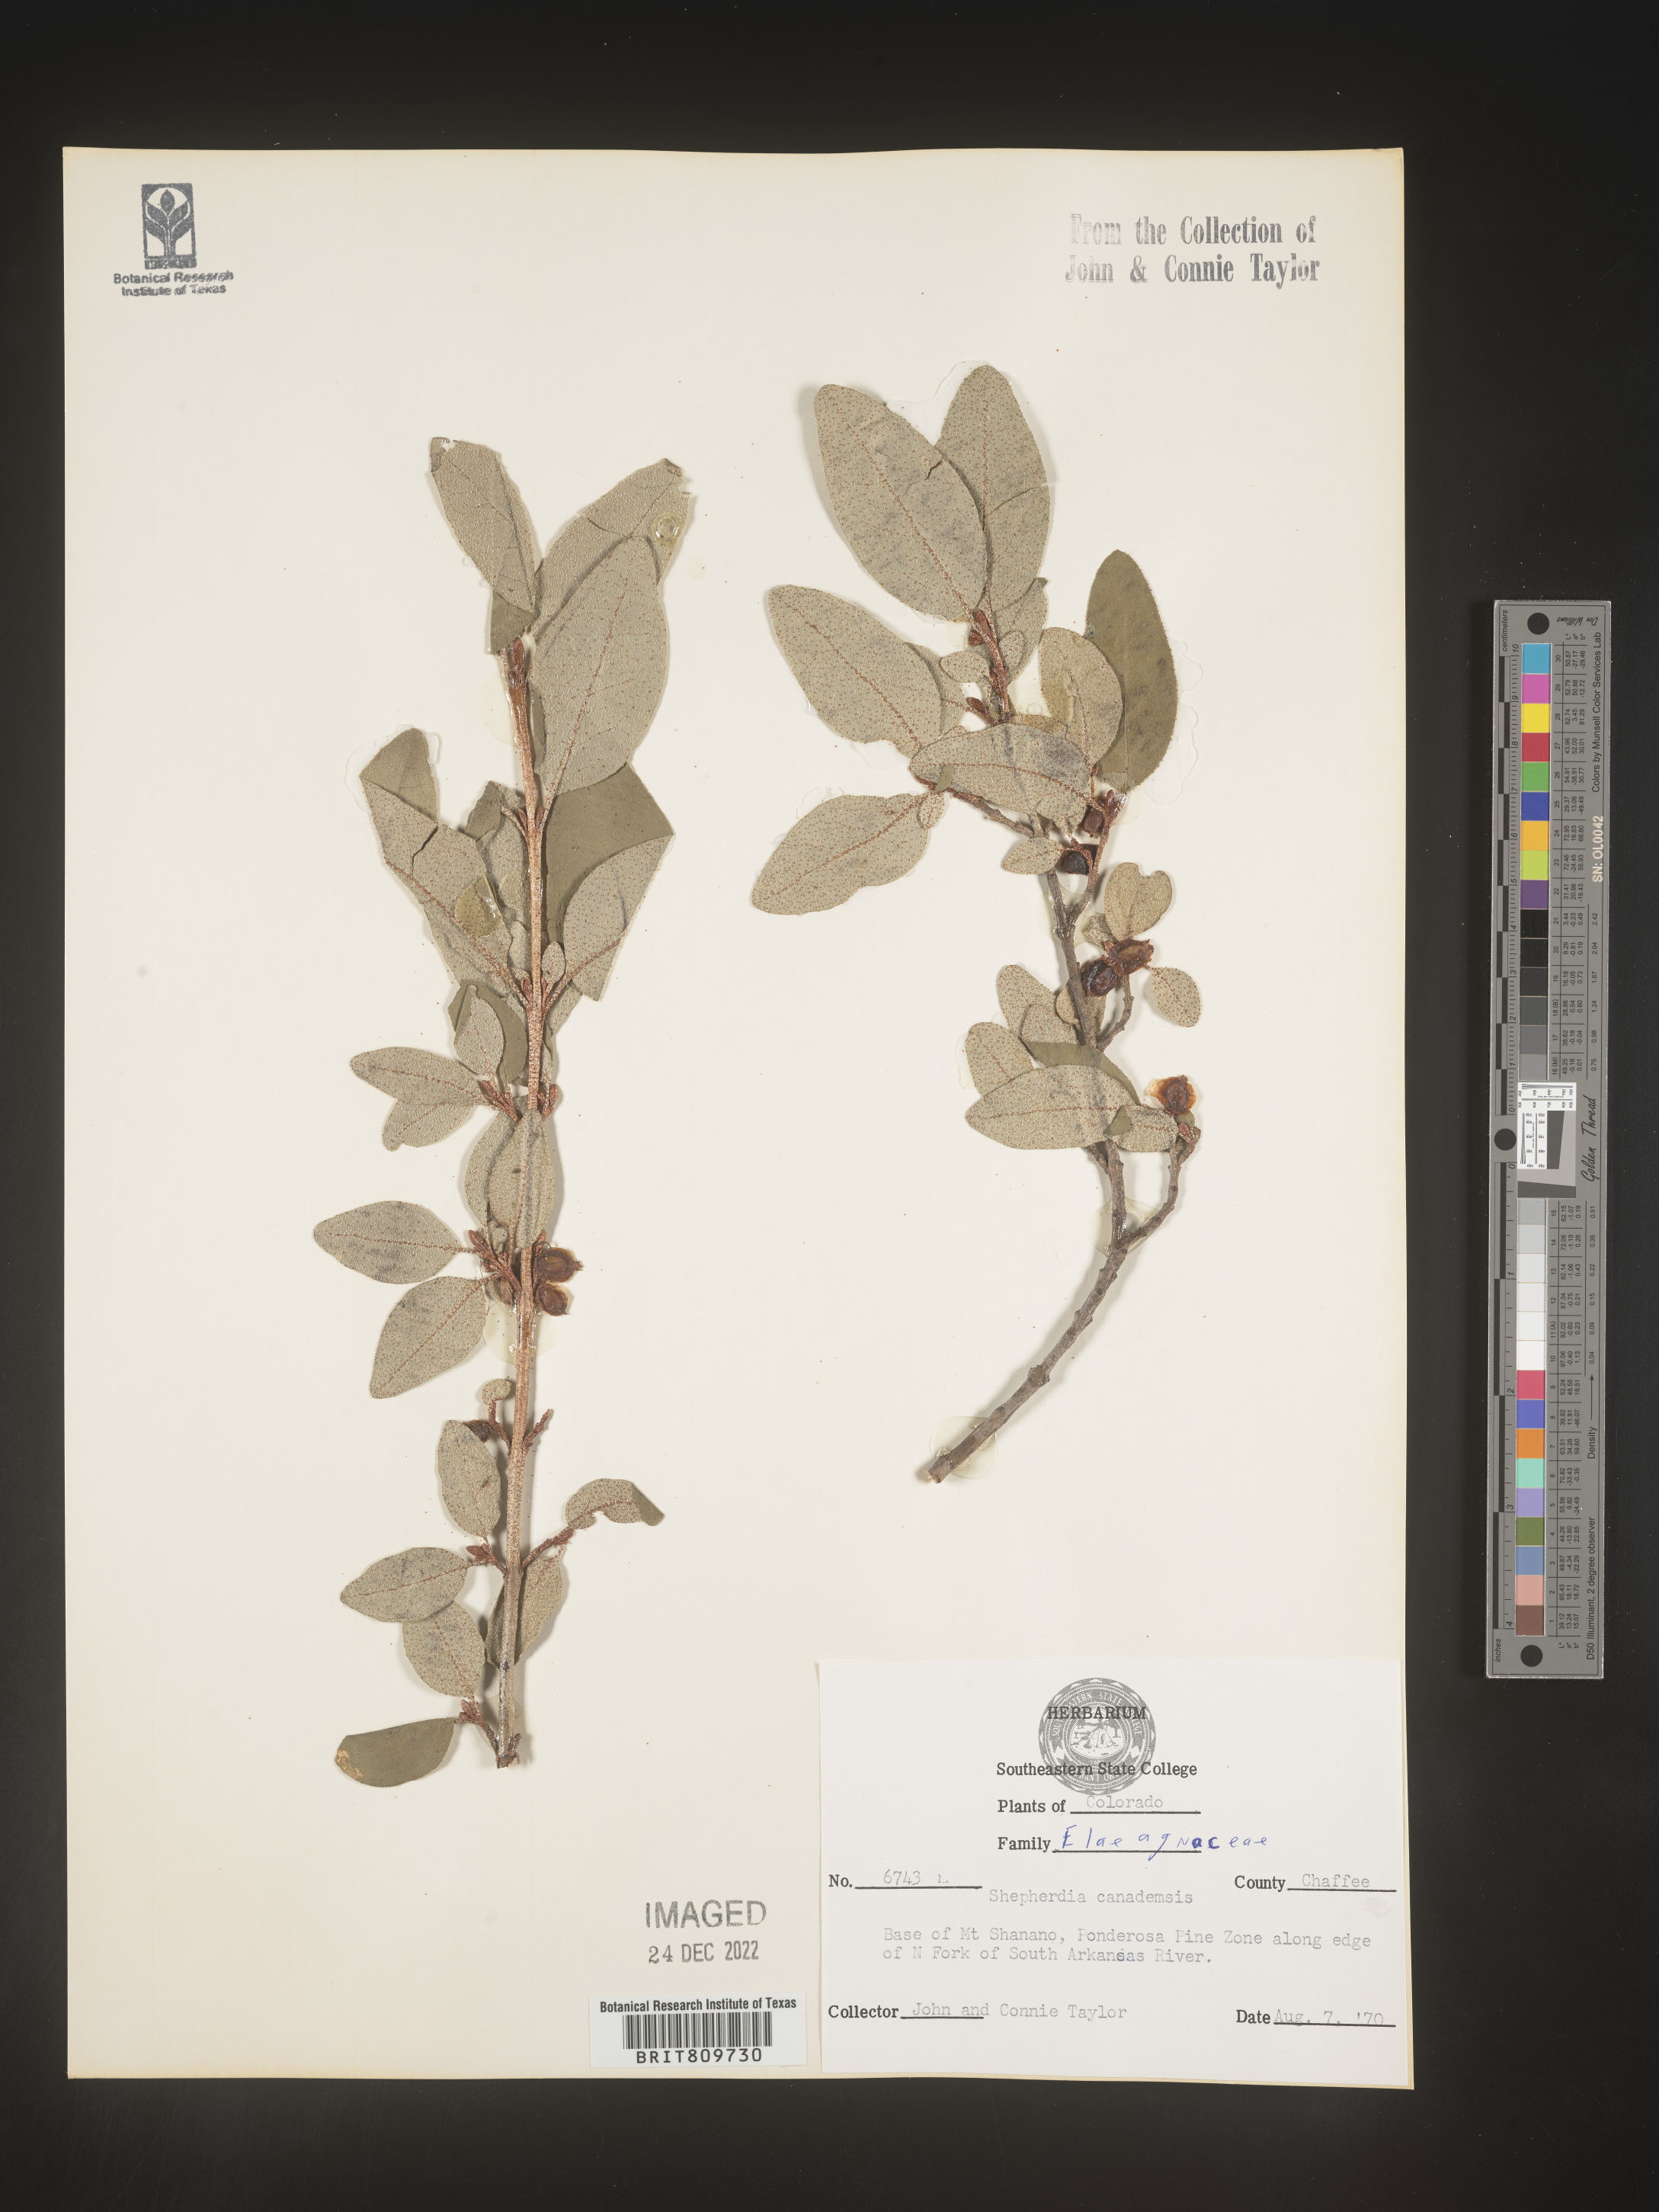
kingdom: Plantae
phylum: Tracheophyta
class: Magnoliopsida
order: Rosales
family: Elaeagnaceae
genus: Shepherdia
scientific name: Shepherdia canadensis
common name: Soapberry
